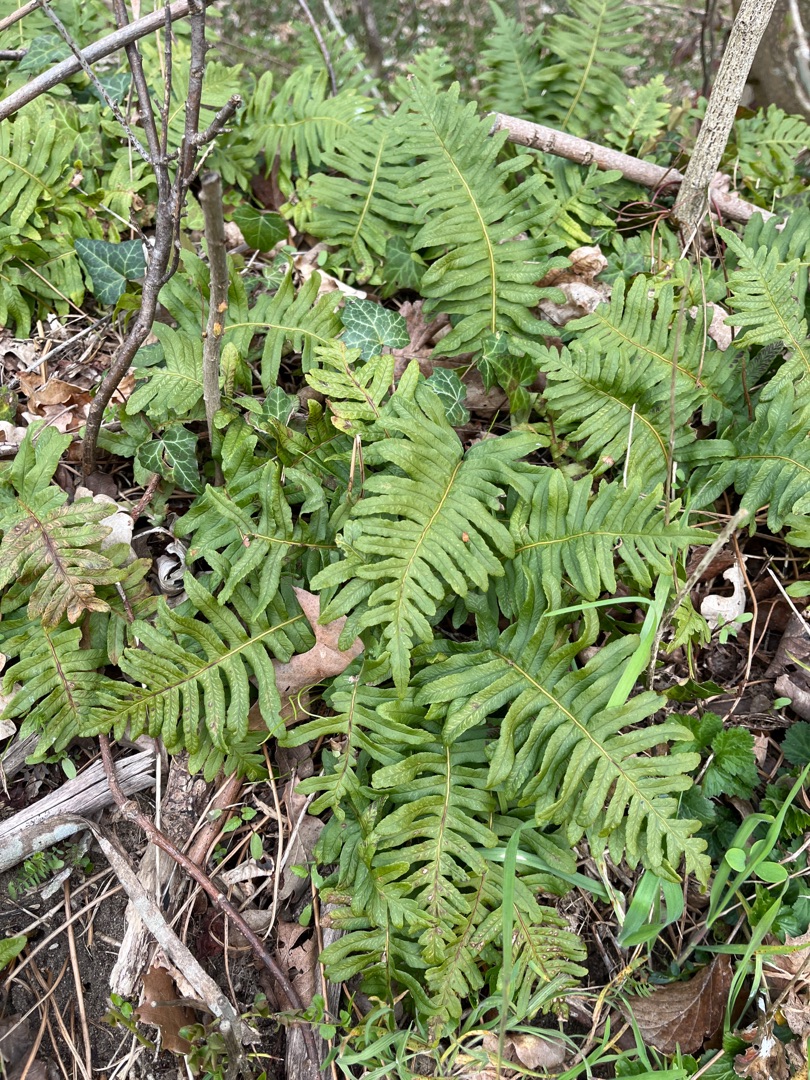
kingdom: Plantae
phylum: Tracheophyta
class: Polypodiopsida
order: Polypodiales
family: Polypodiaceae
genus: Polypodium
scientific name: Polypodium vulgare
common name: Almindelig engelsød
